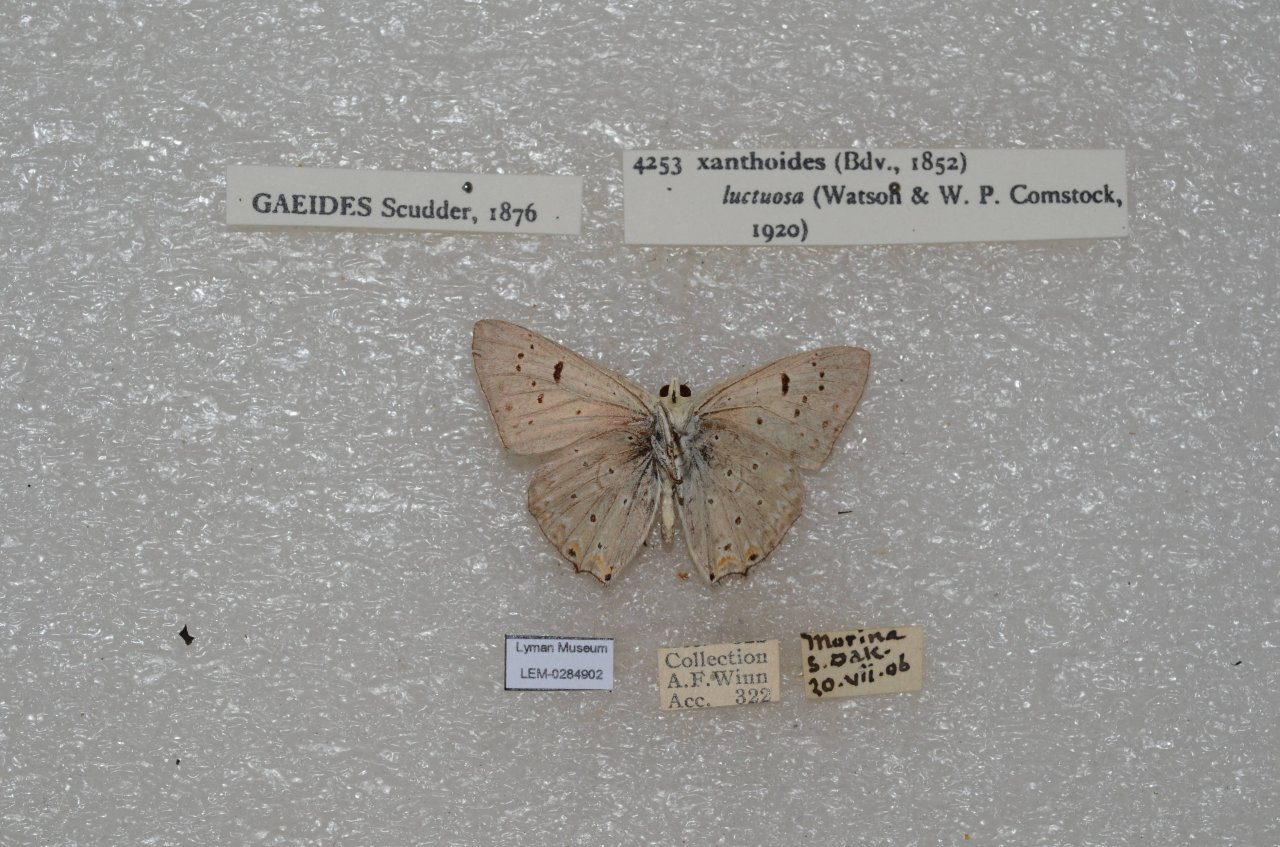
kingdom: Animalia
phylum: Arthropoda
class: Insecta
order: Lepidoptera
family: Lycaenidae
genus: Nacaduba
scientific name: Nacaduba dyopa
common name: Gray Copper
